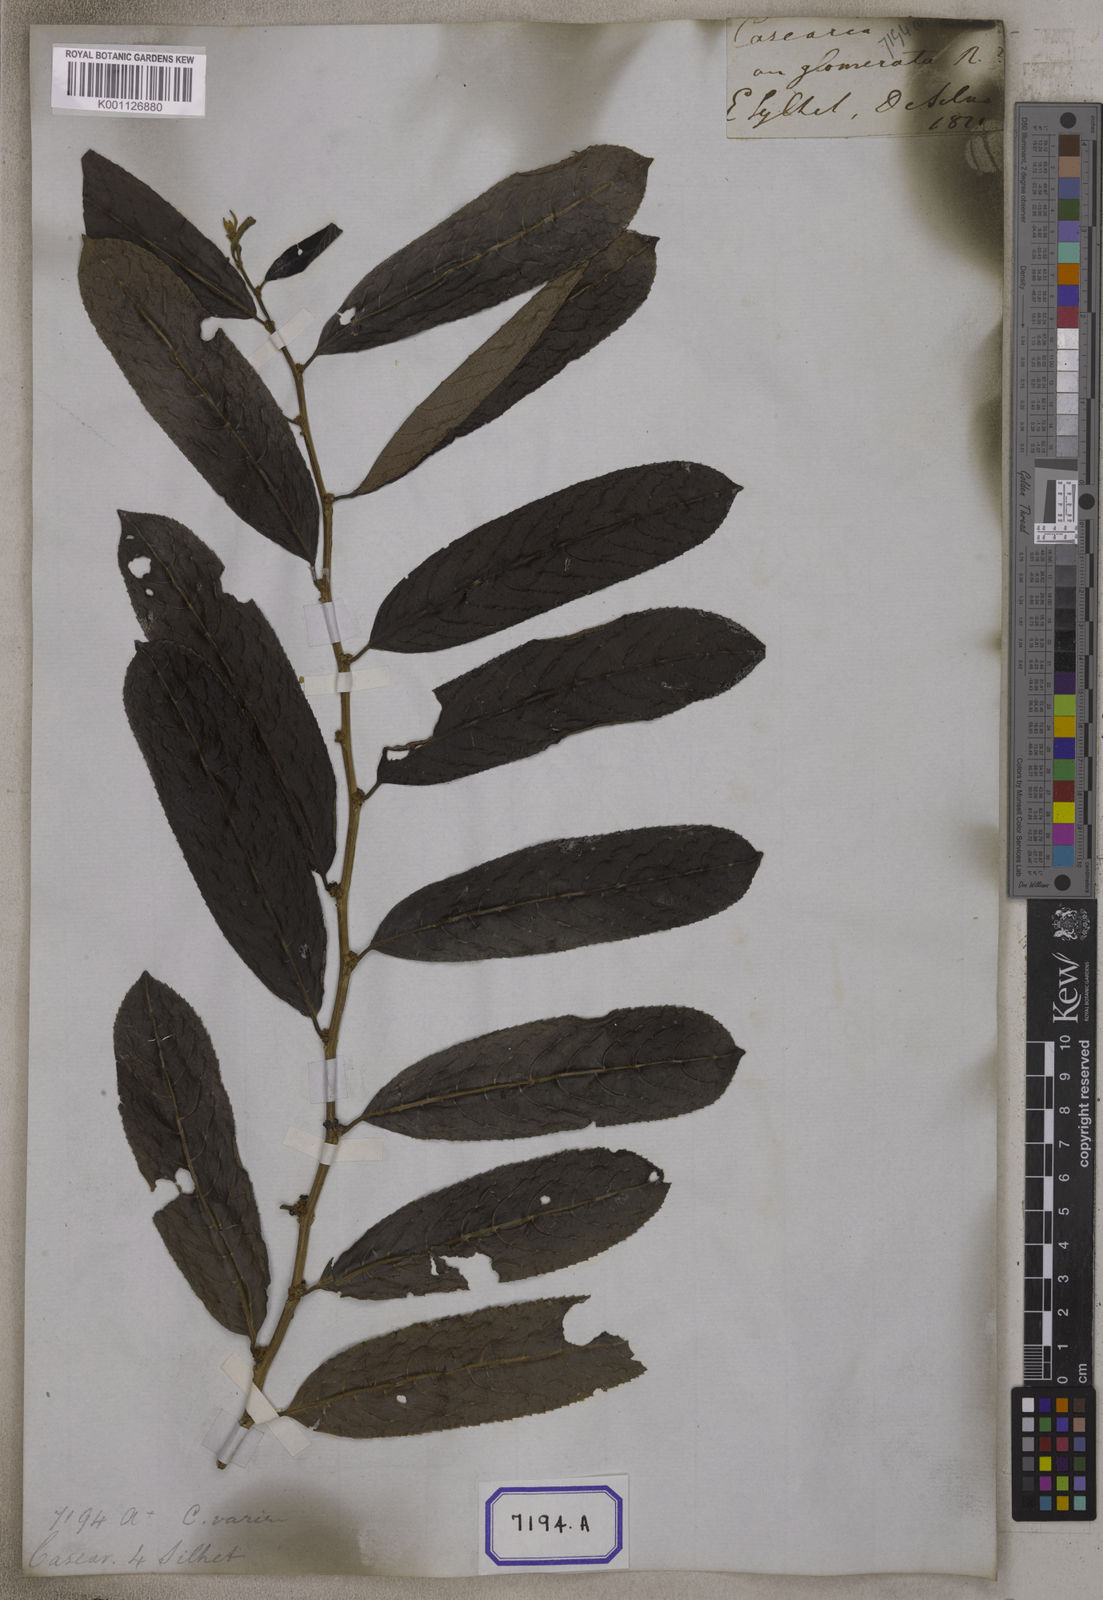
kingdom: Plantae
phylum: Tracheophyta
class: Magnoliopsida
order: Malpighiales
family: Salicaceae
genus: Casearia
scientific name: Casearia vareca
